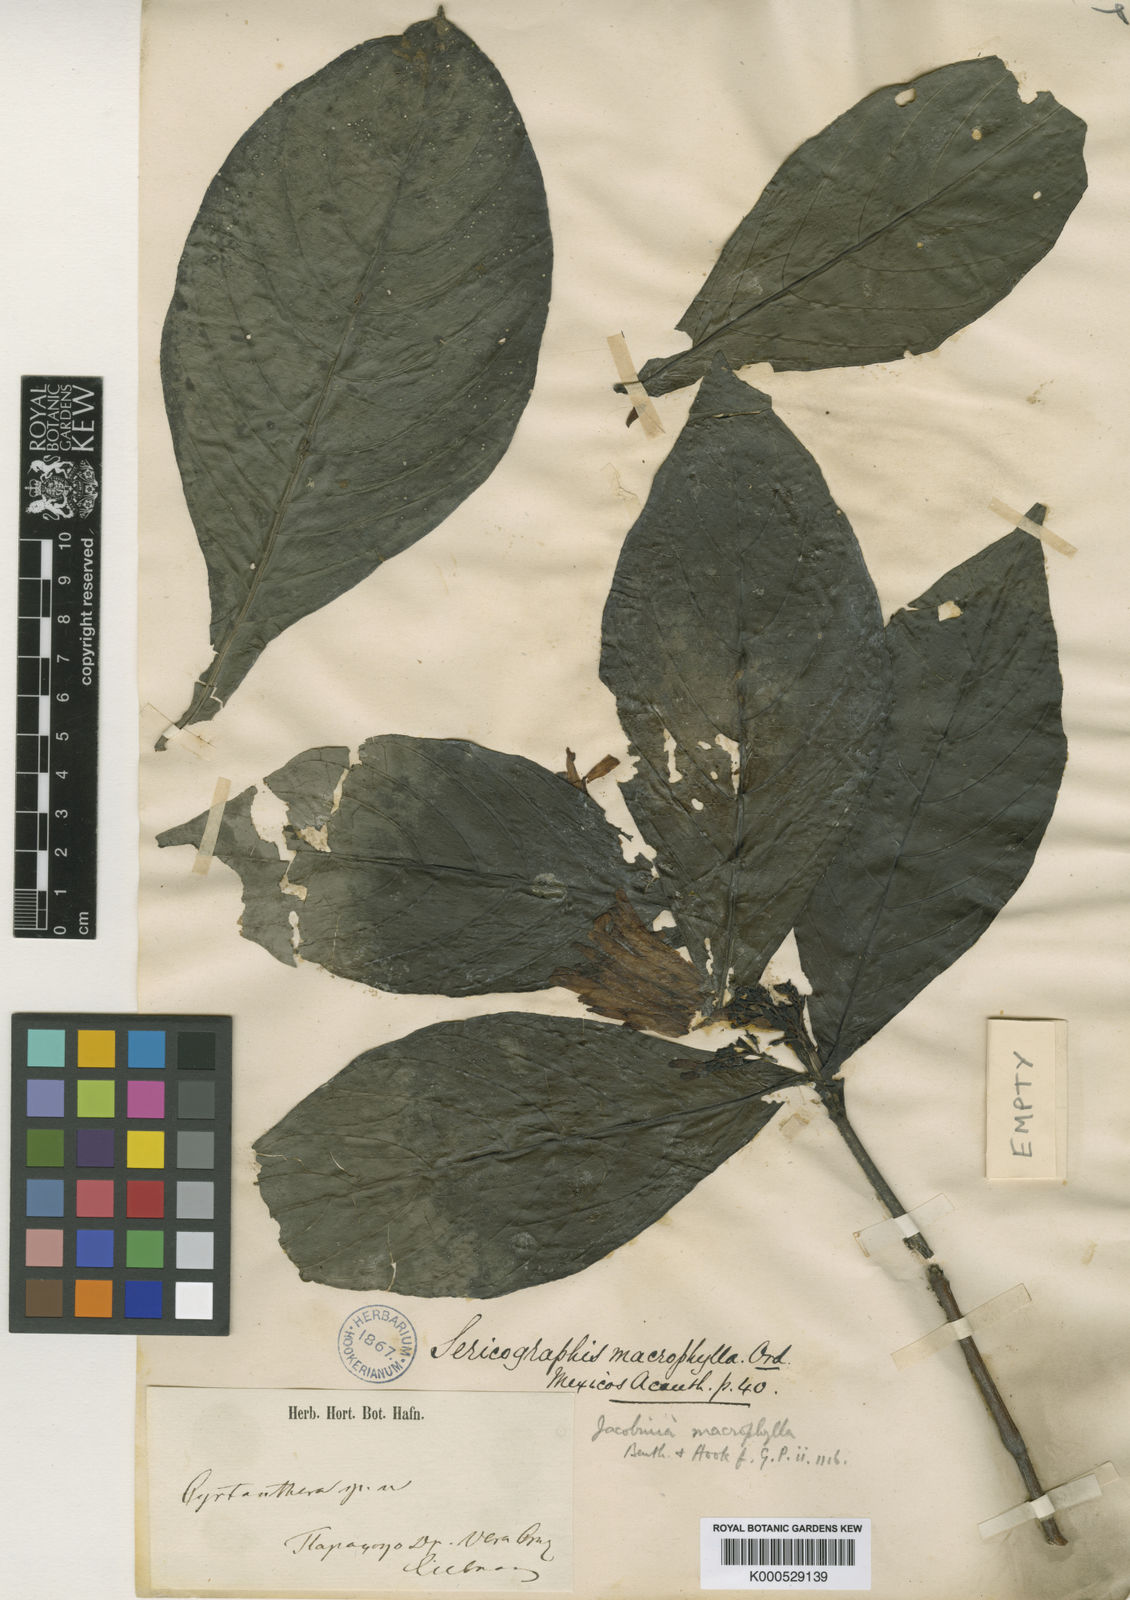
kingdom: Plantae
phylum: Tracheophyta
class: Magnoliopsida
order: Lamiales
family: Acanthaceae
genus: Justicia
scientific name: Justicia spicigera
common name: Mohintli
